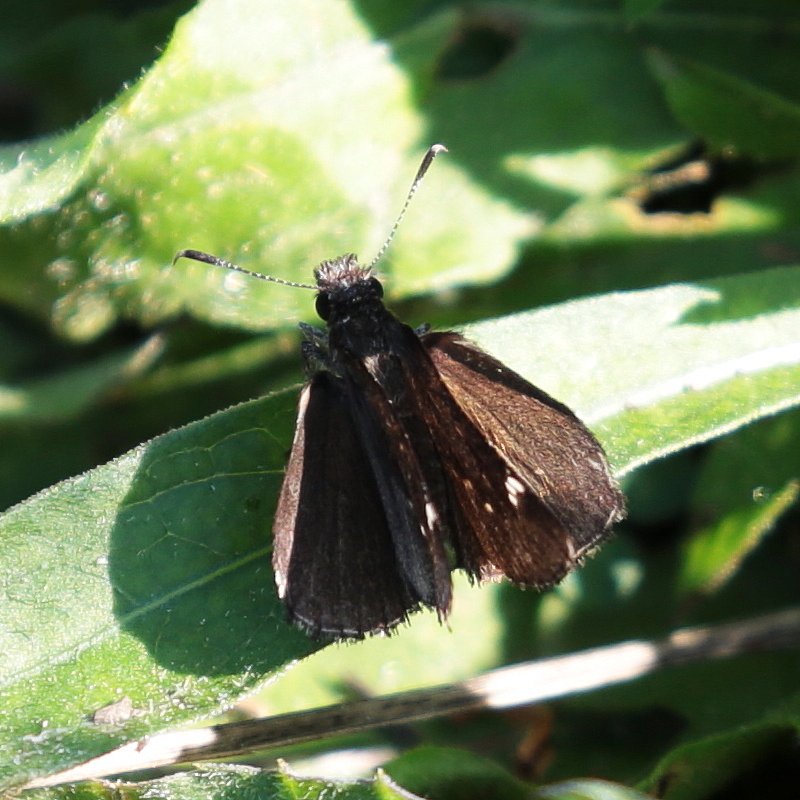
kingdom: Animalia
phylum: Arthropoda
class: Insecta
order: Lepidoptera
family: Hesperiidae
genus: Mastor
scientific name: Mastor vialis
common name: Common Roadside-Skipper
